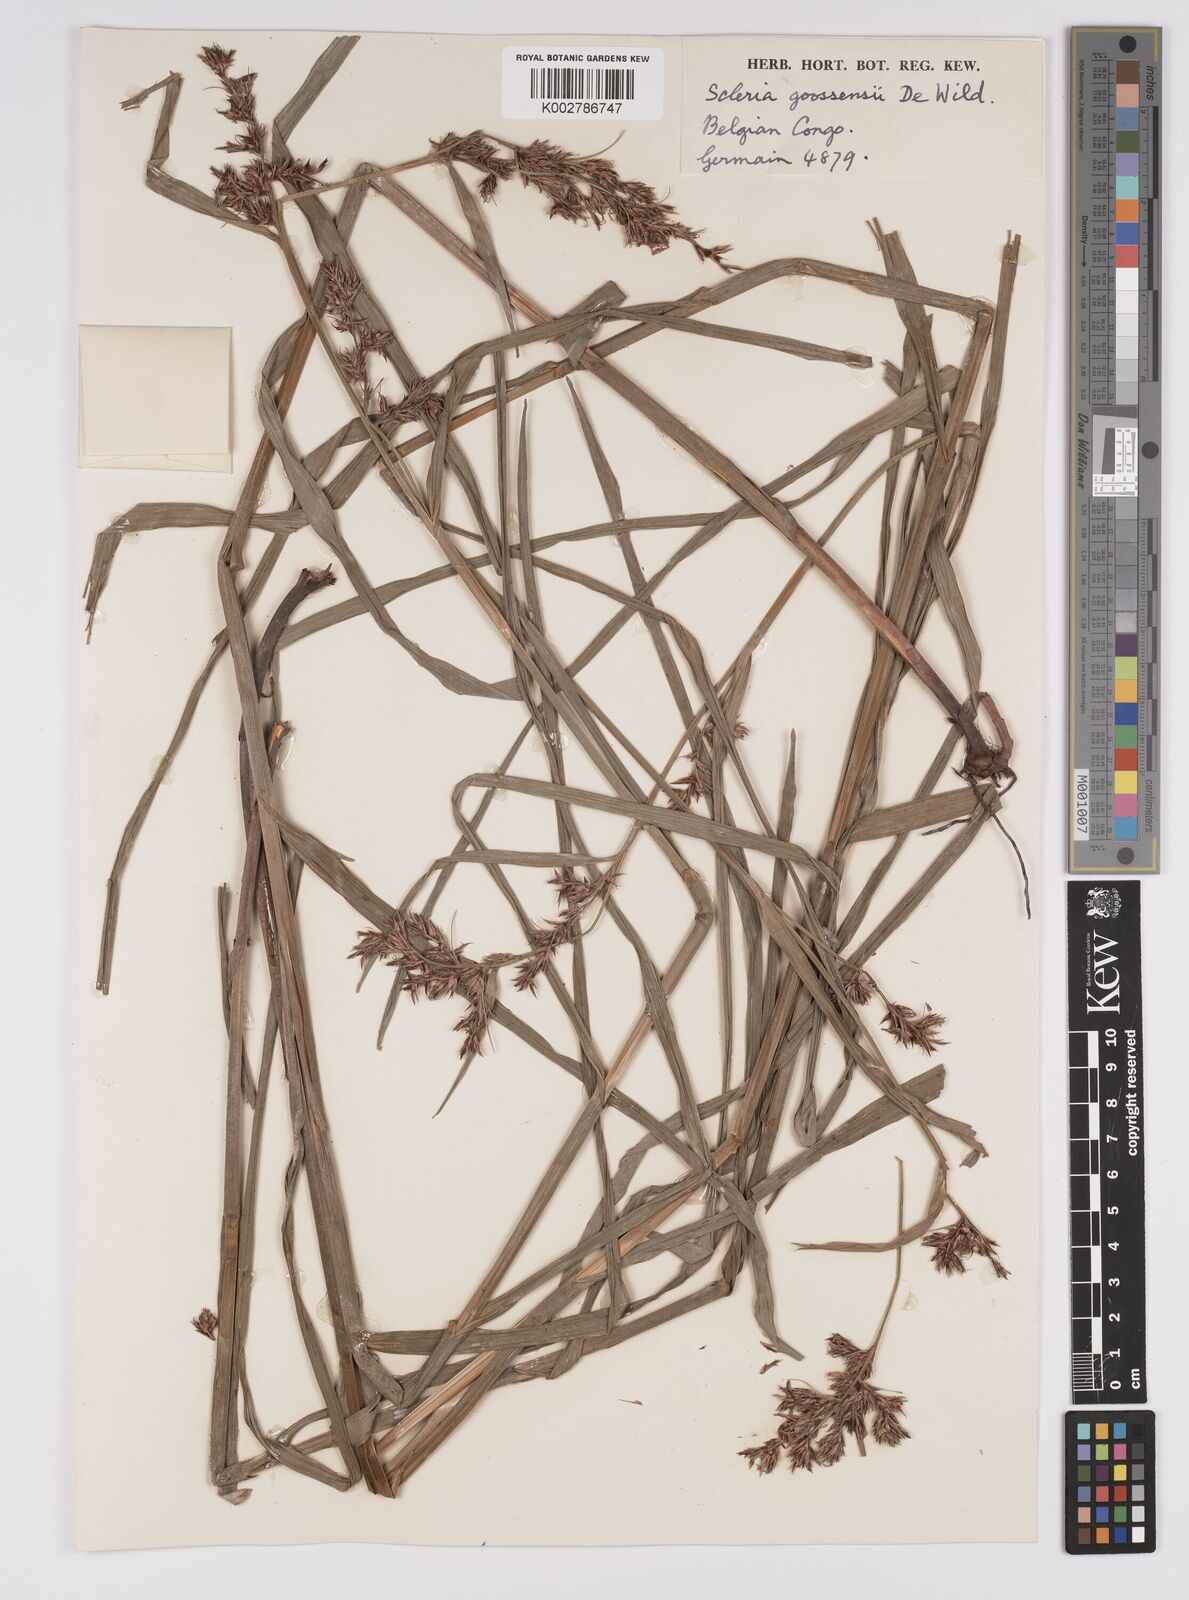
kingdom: Plantae
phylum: Tracheophyta
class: Liliopsida
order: Poales
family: Cyperaceae
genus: Scleria
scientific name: Scleria goossensii
